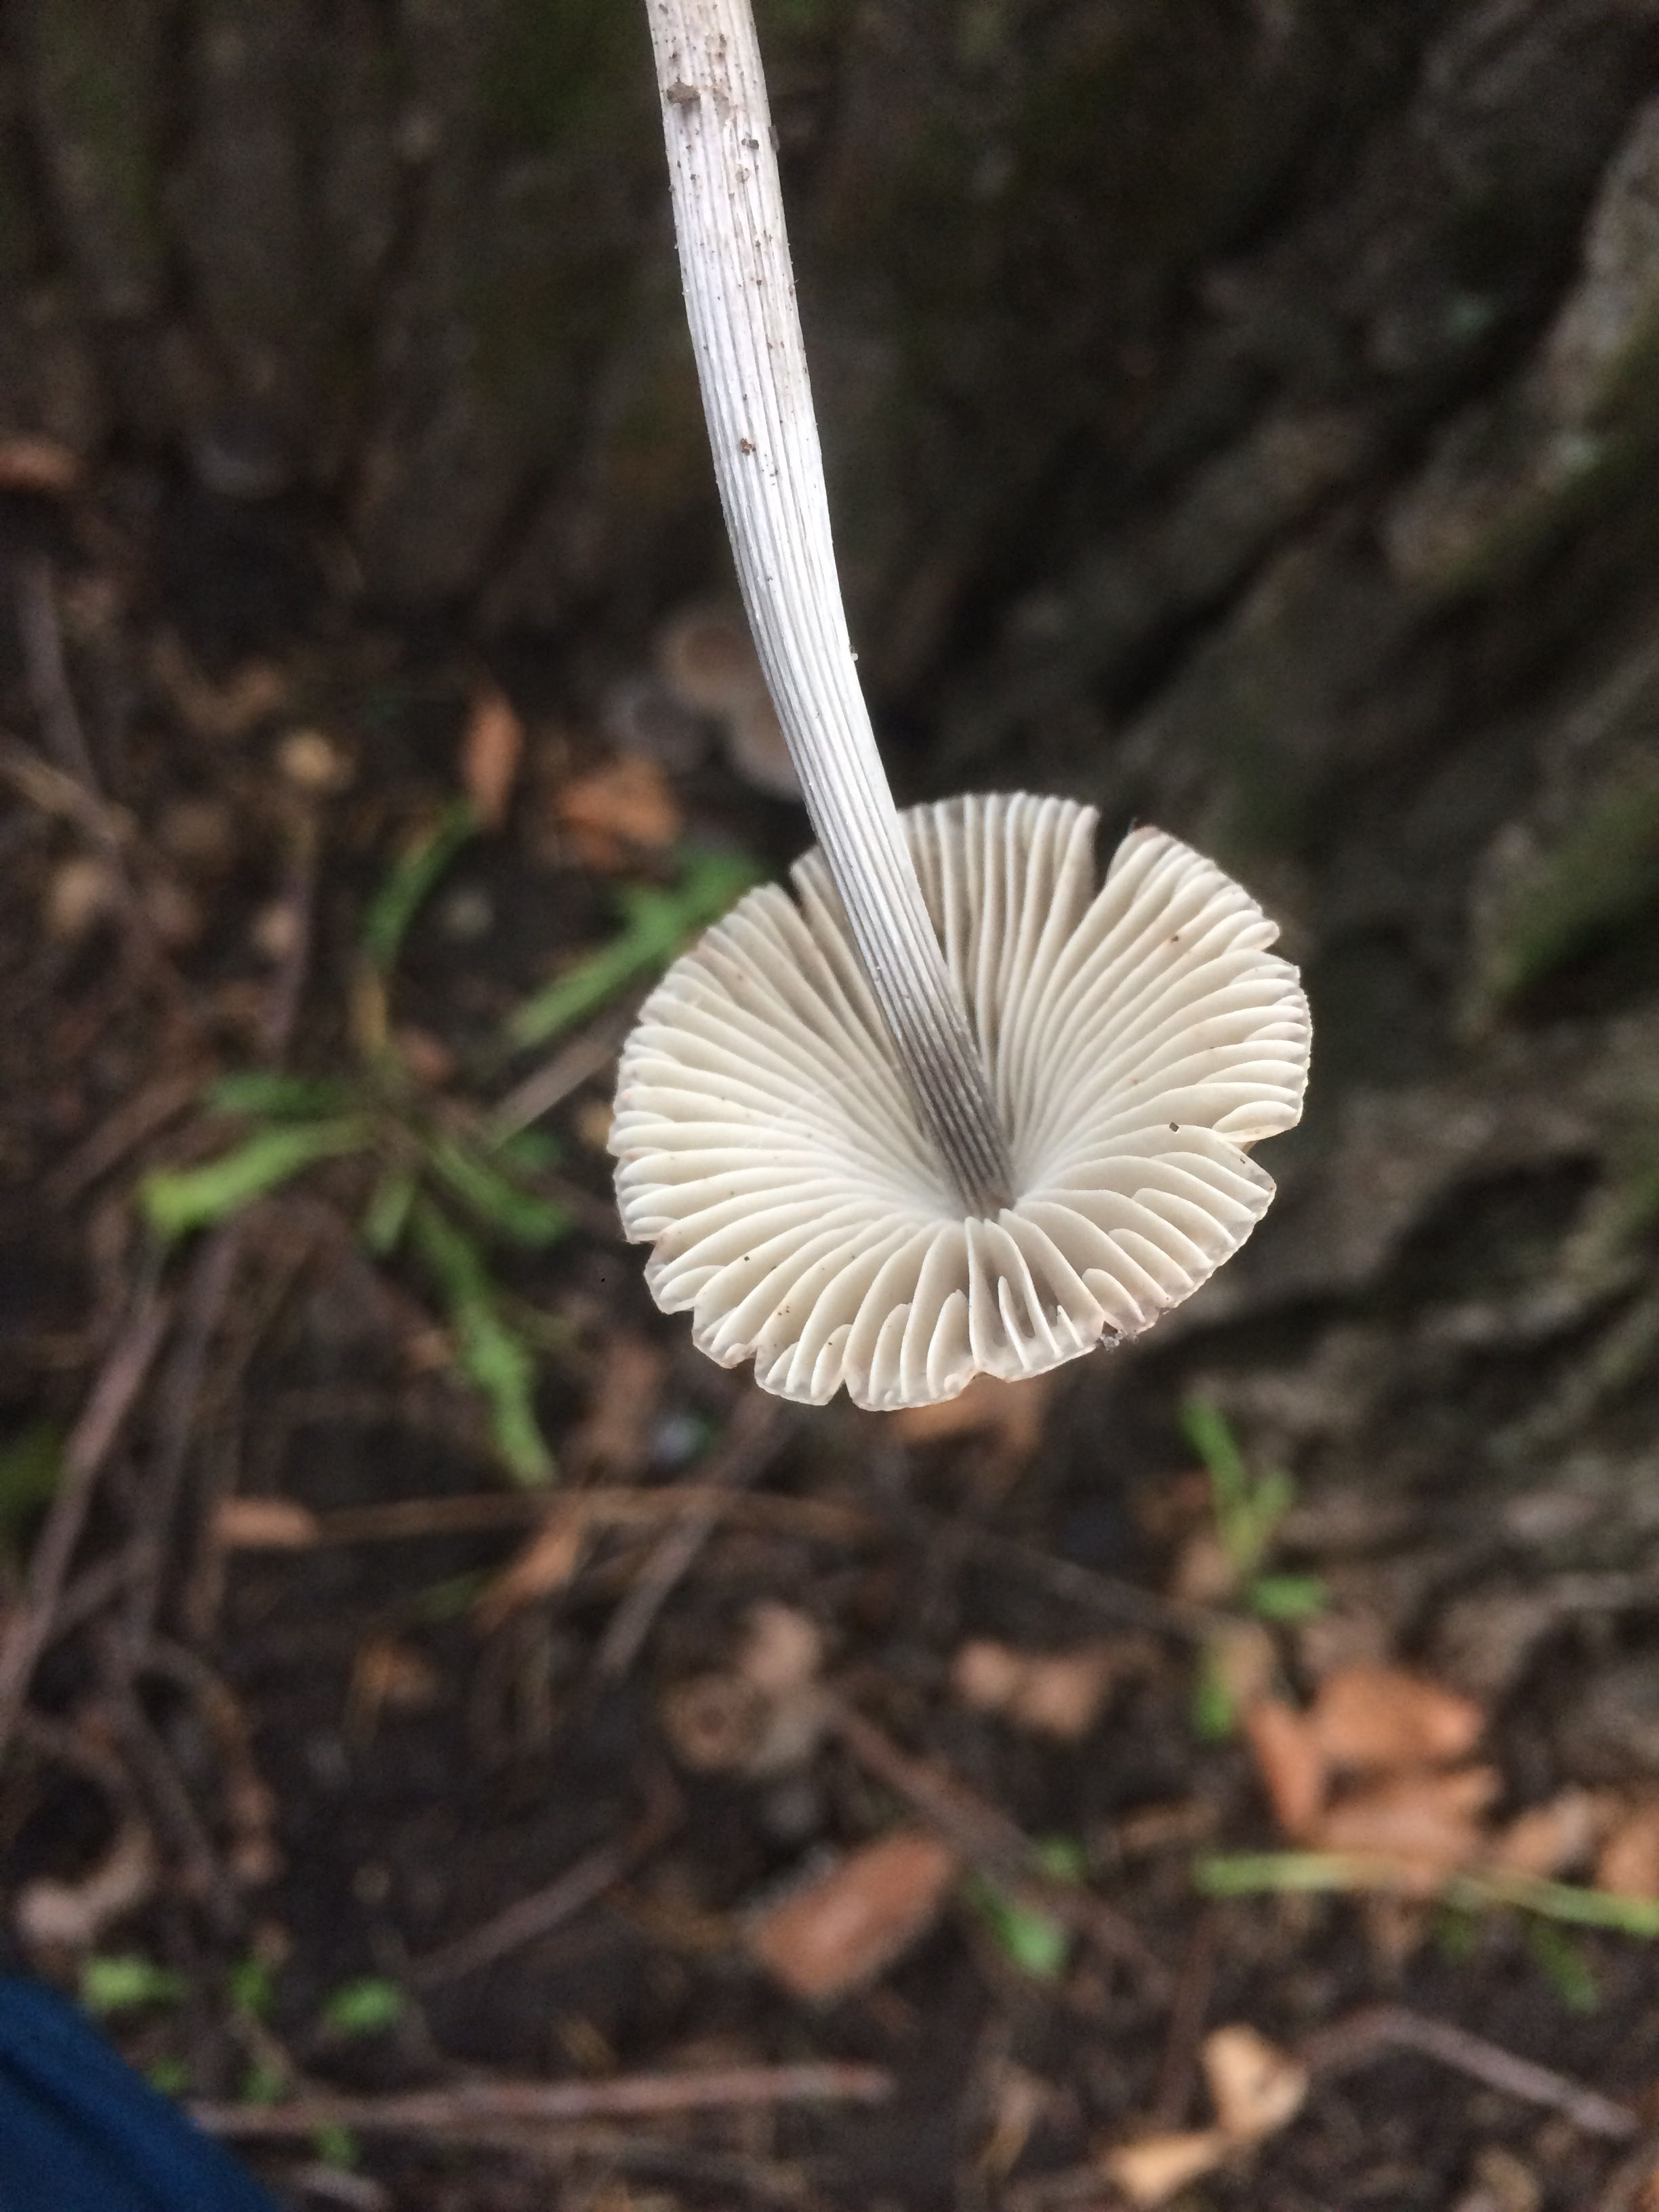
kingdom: Fungi
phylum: Basidiomycota
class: Agaricomycetes
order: Agaricales
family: Mycenaceae
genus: Mycena
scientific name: Mycena polygramma
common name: mangestribet huesvamp
